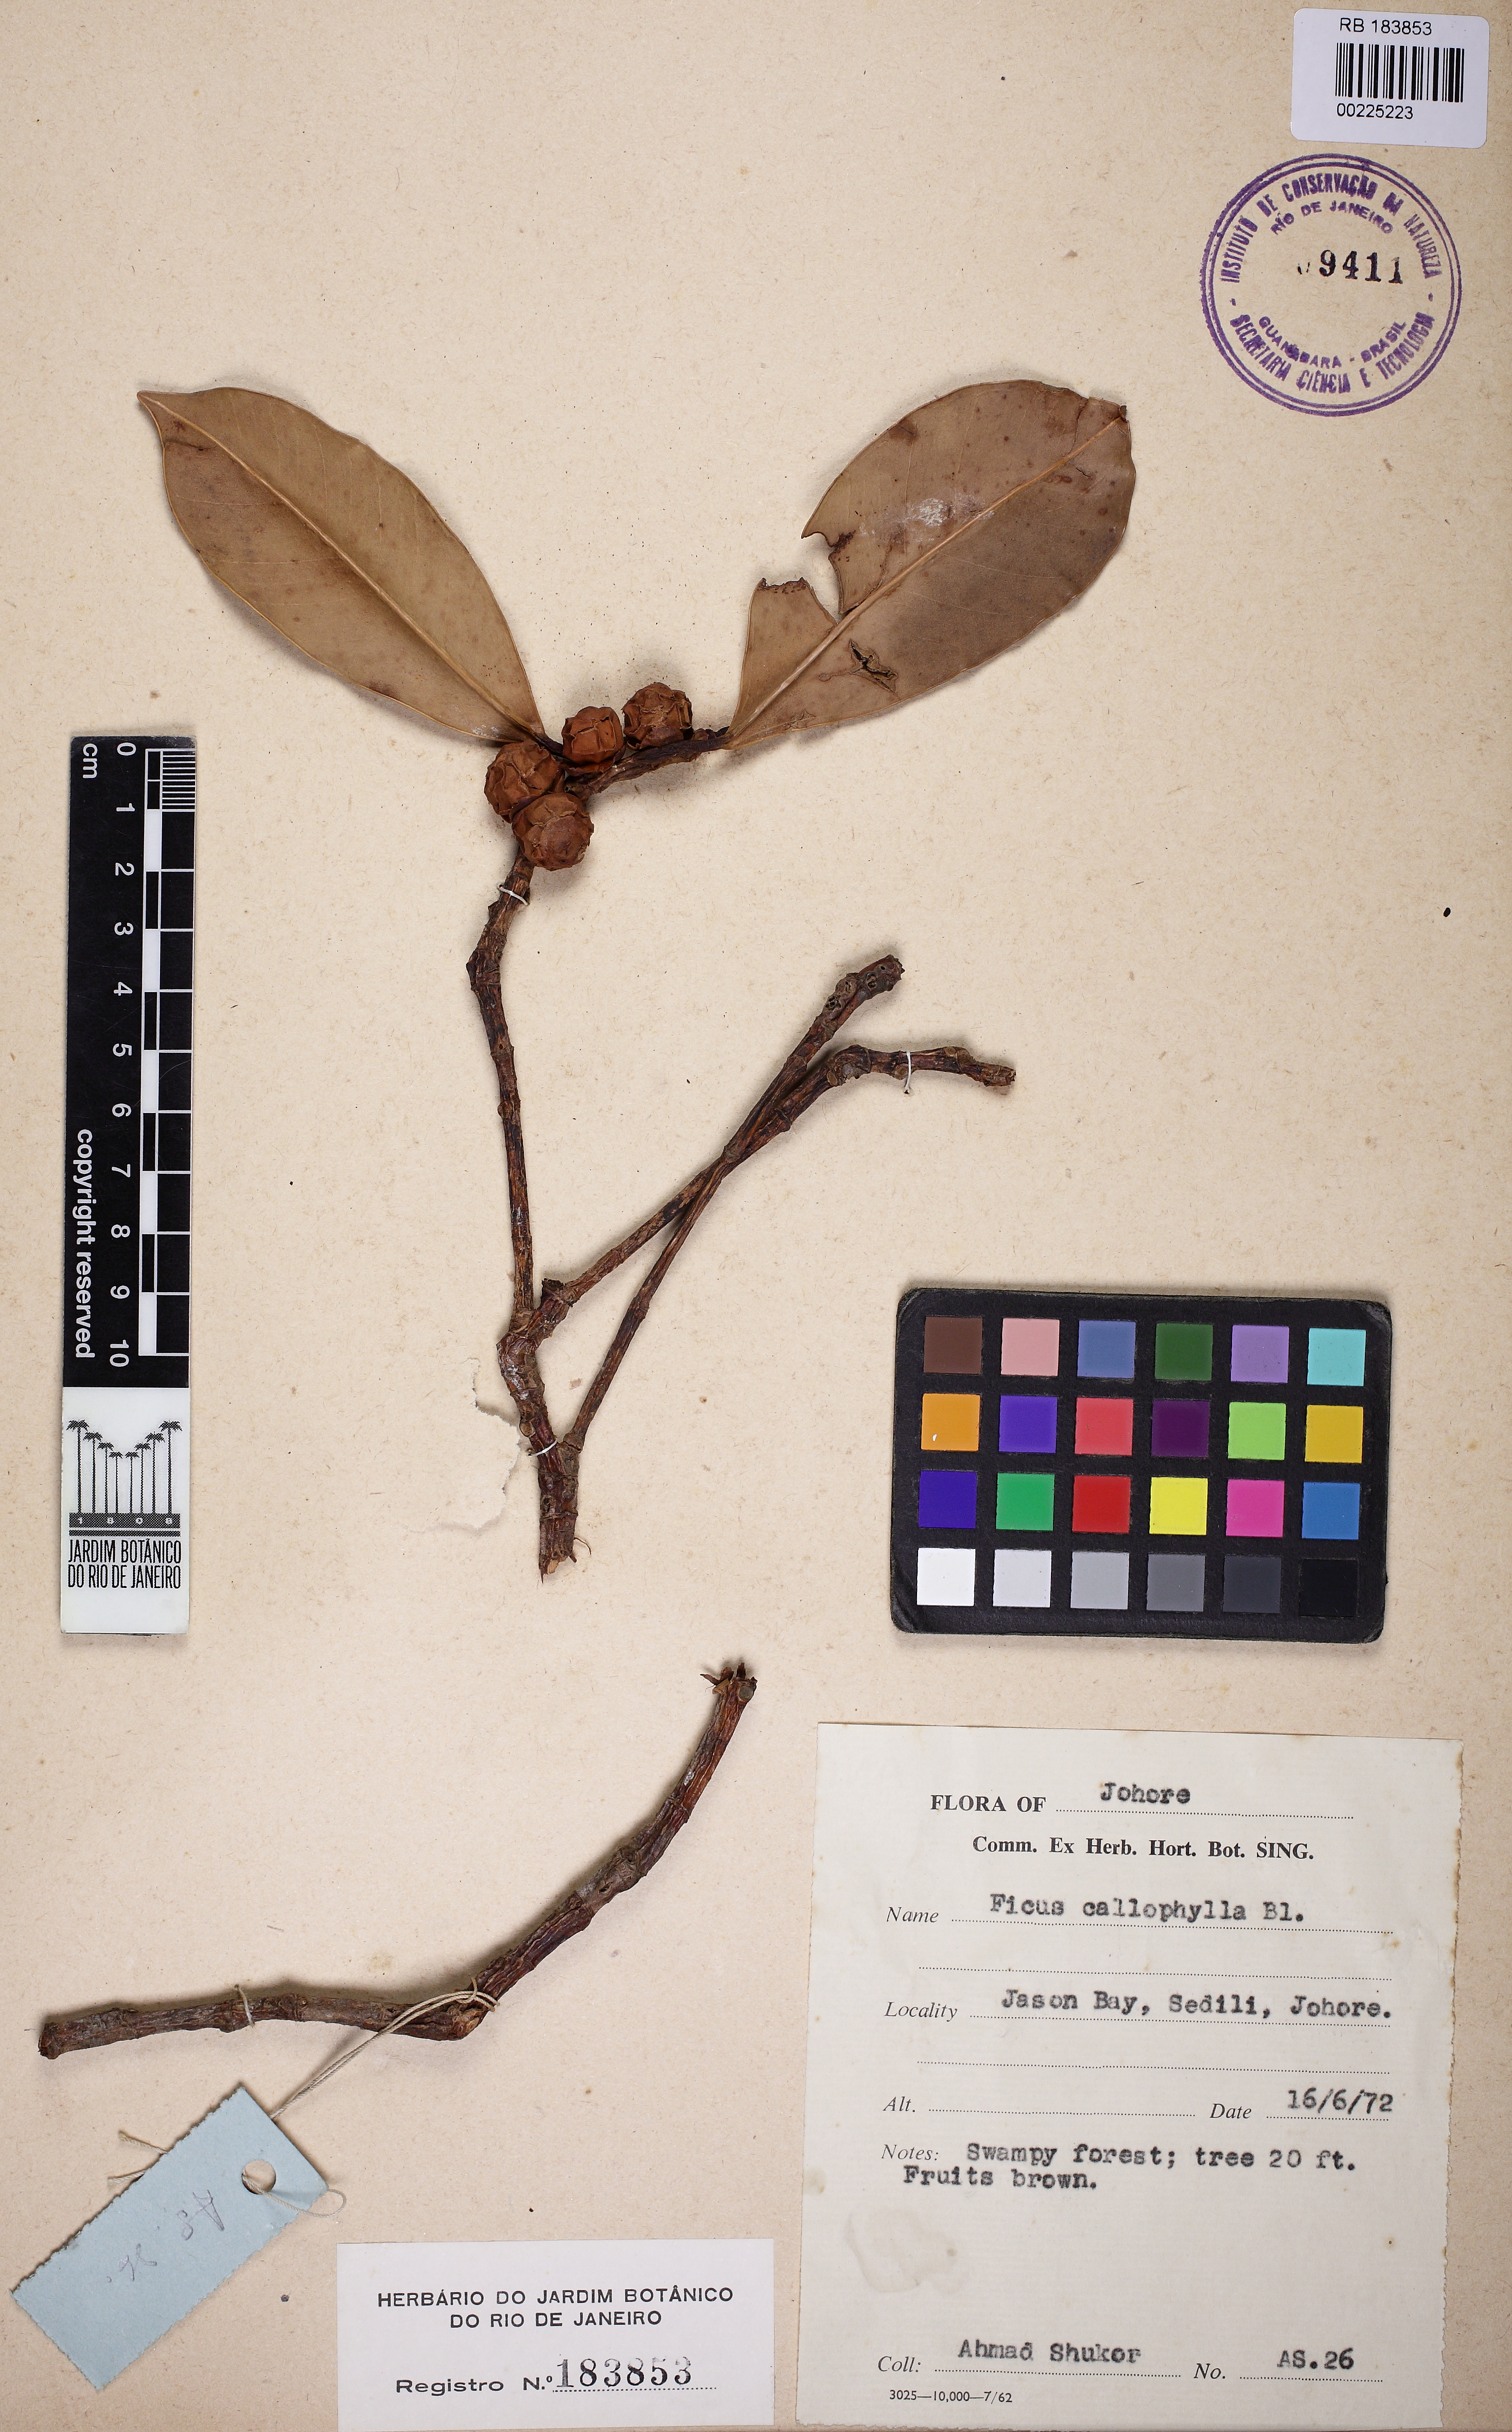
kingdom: Plantae
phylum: Tracheophyta
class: Magnoliopsida
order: Rosales
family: Moraceae
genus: Ficus
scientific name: Ficus callophylla
